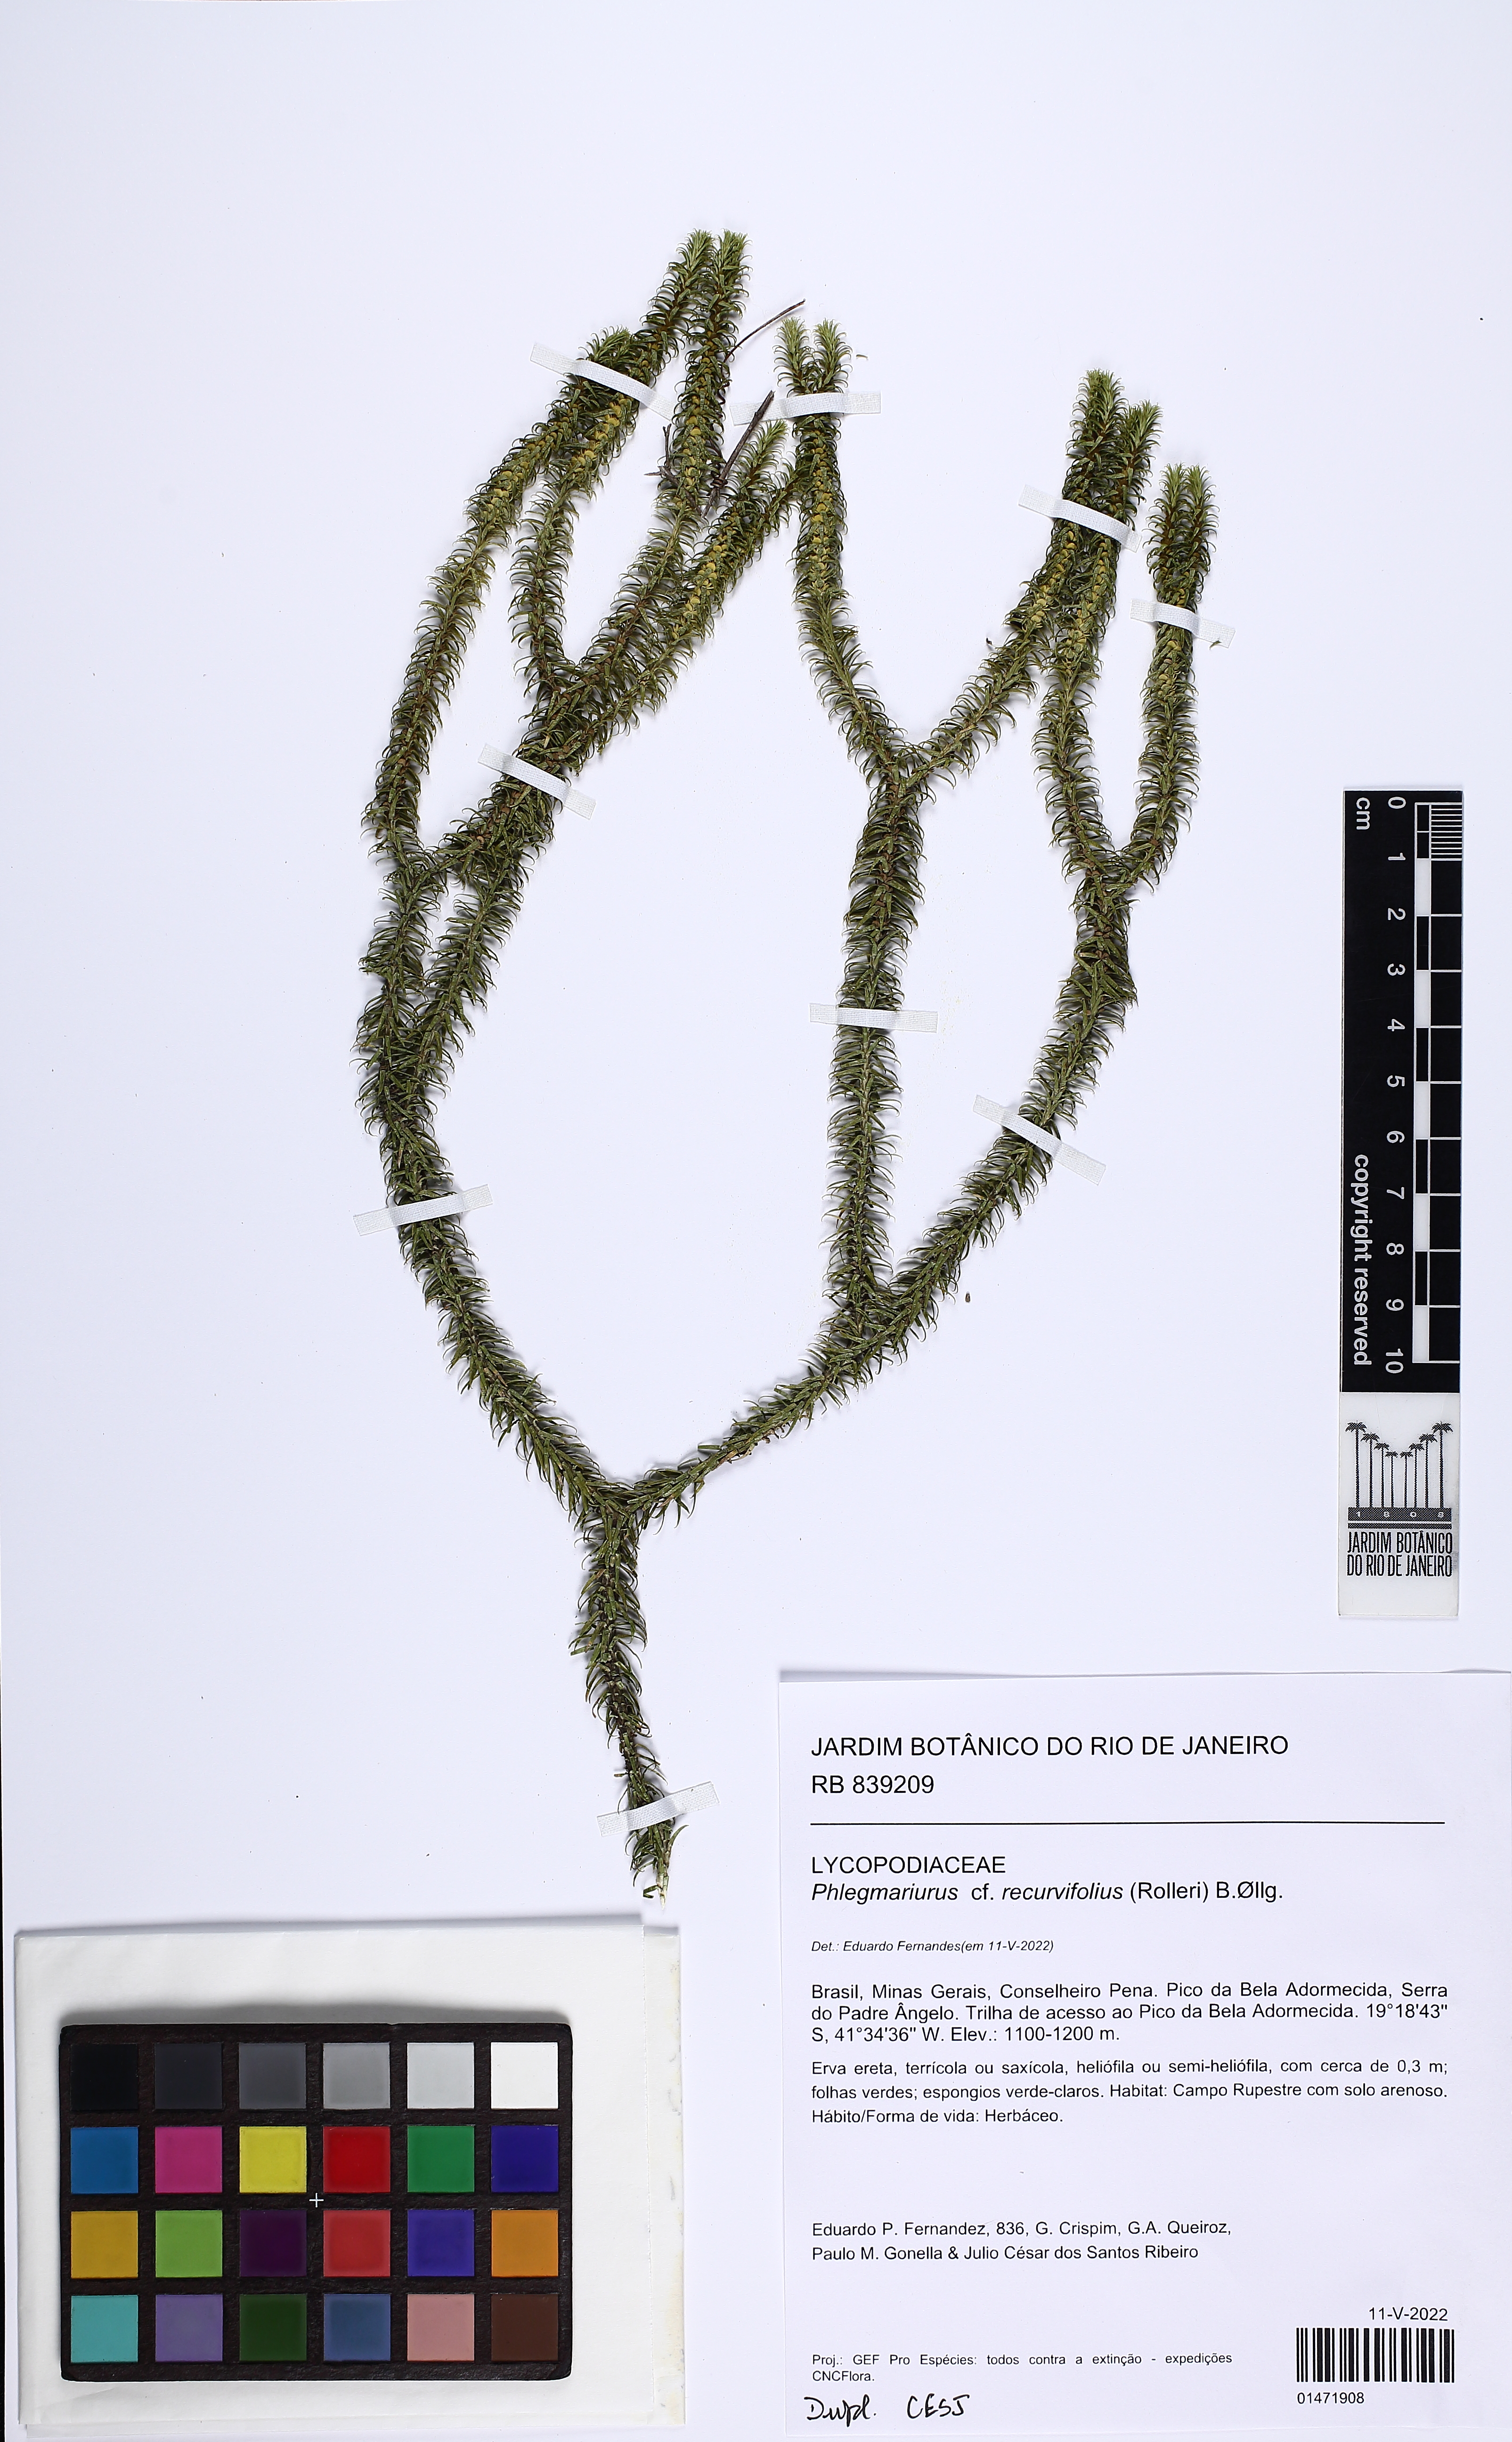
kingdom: Plantae
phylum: Tracheophyta
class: Lycopodiopsida
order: Lycopodiales
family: Lycopodiaceae
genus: Phlegmariurus
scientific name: Phlegmariurus recurvifolius
